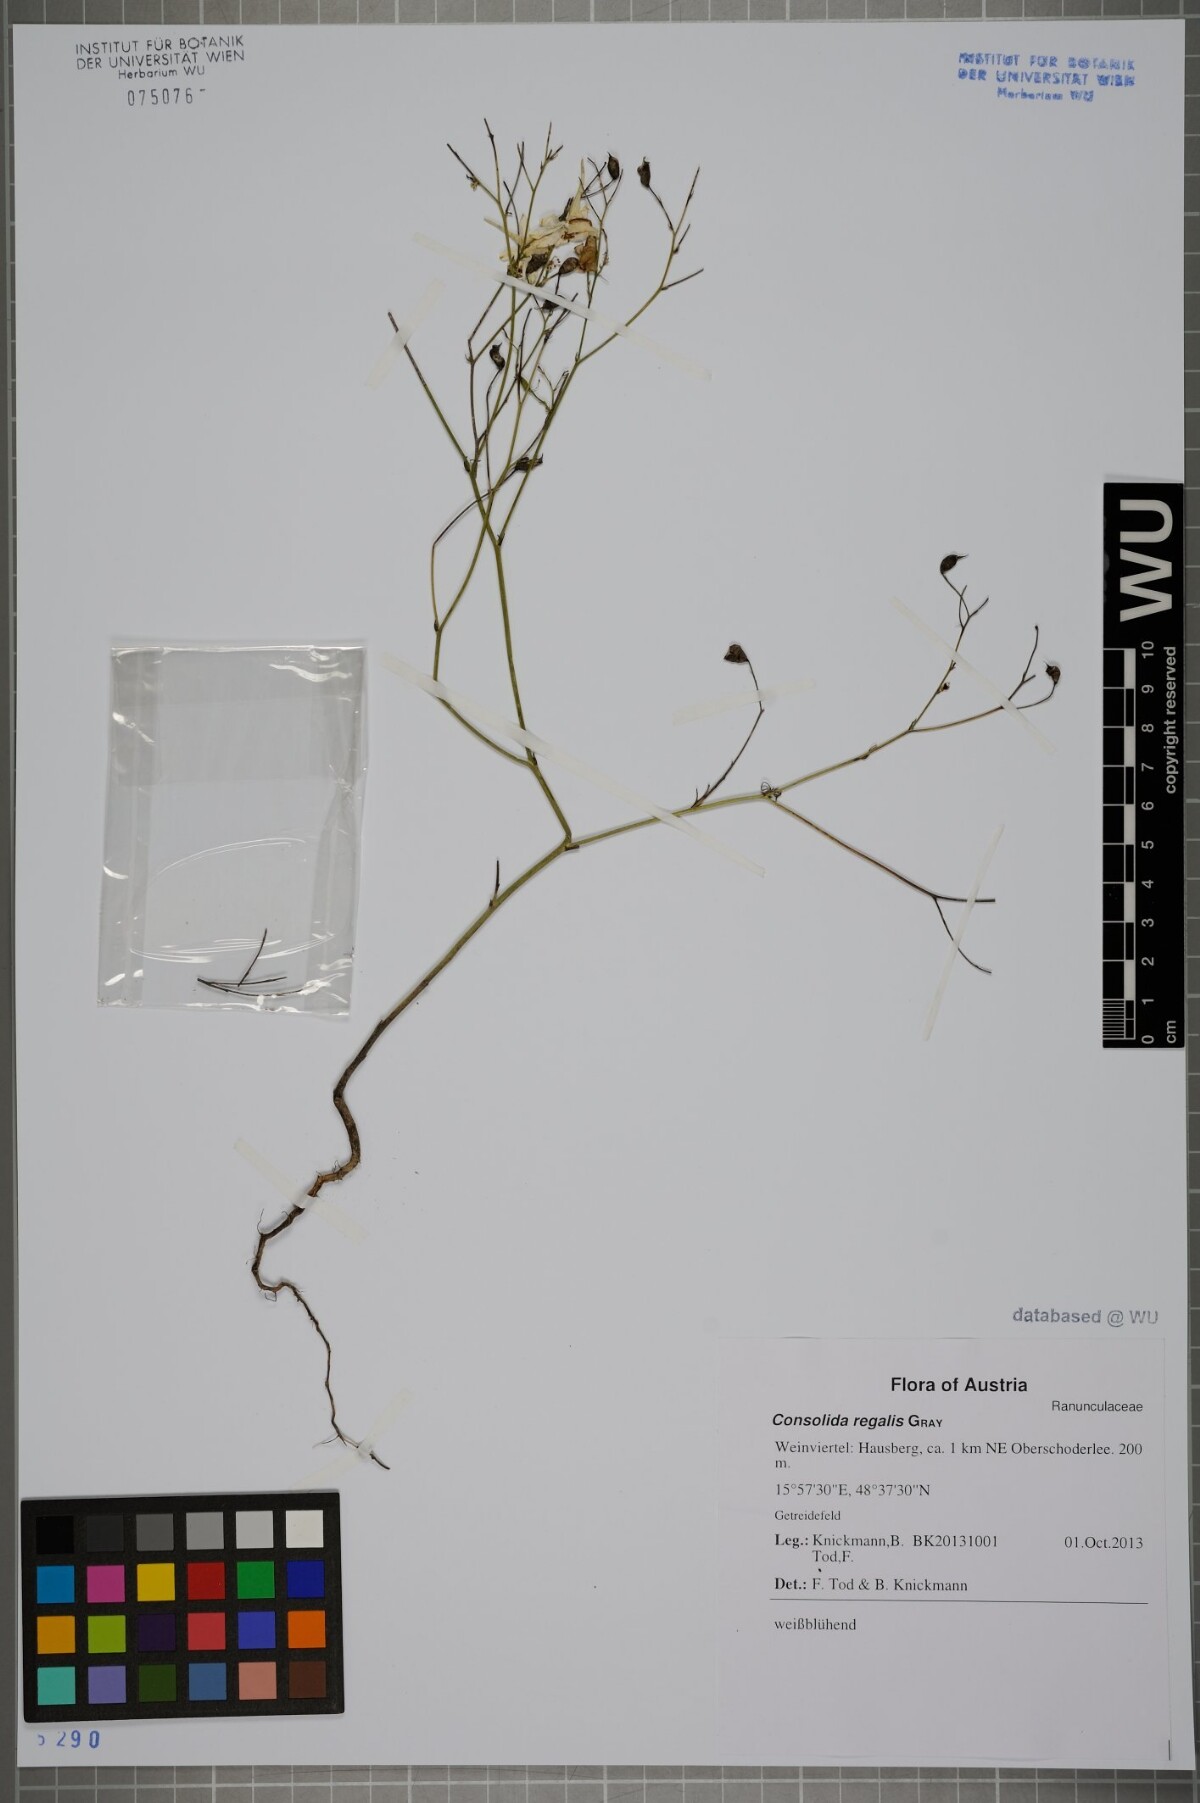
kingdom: Plantae
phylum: Tracheophyta
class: Magnoliopsida
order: Ranunculales
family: Ranunculaceae
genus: Delphinium
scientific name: Delphinium consolida
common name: Branching larkspur
